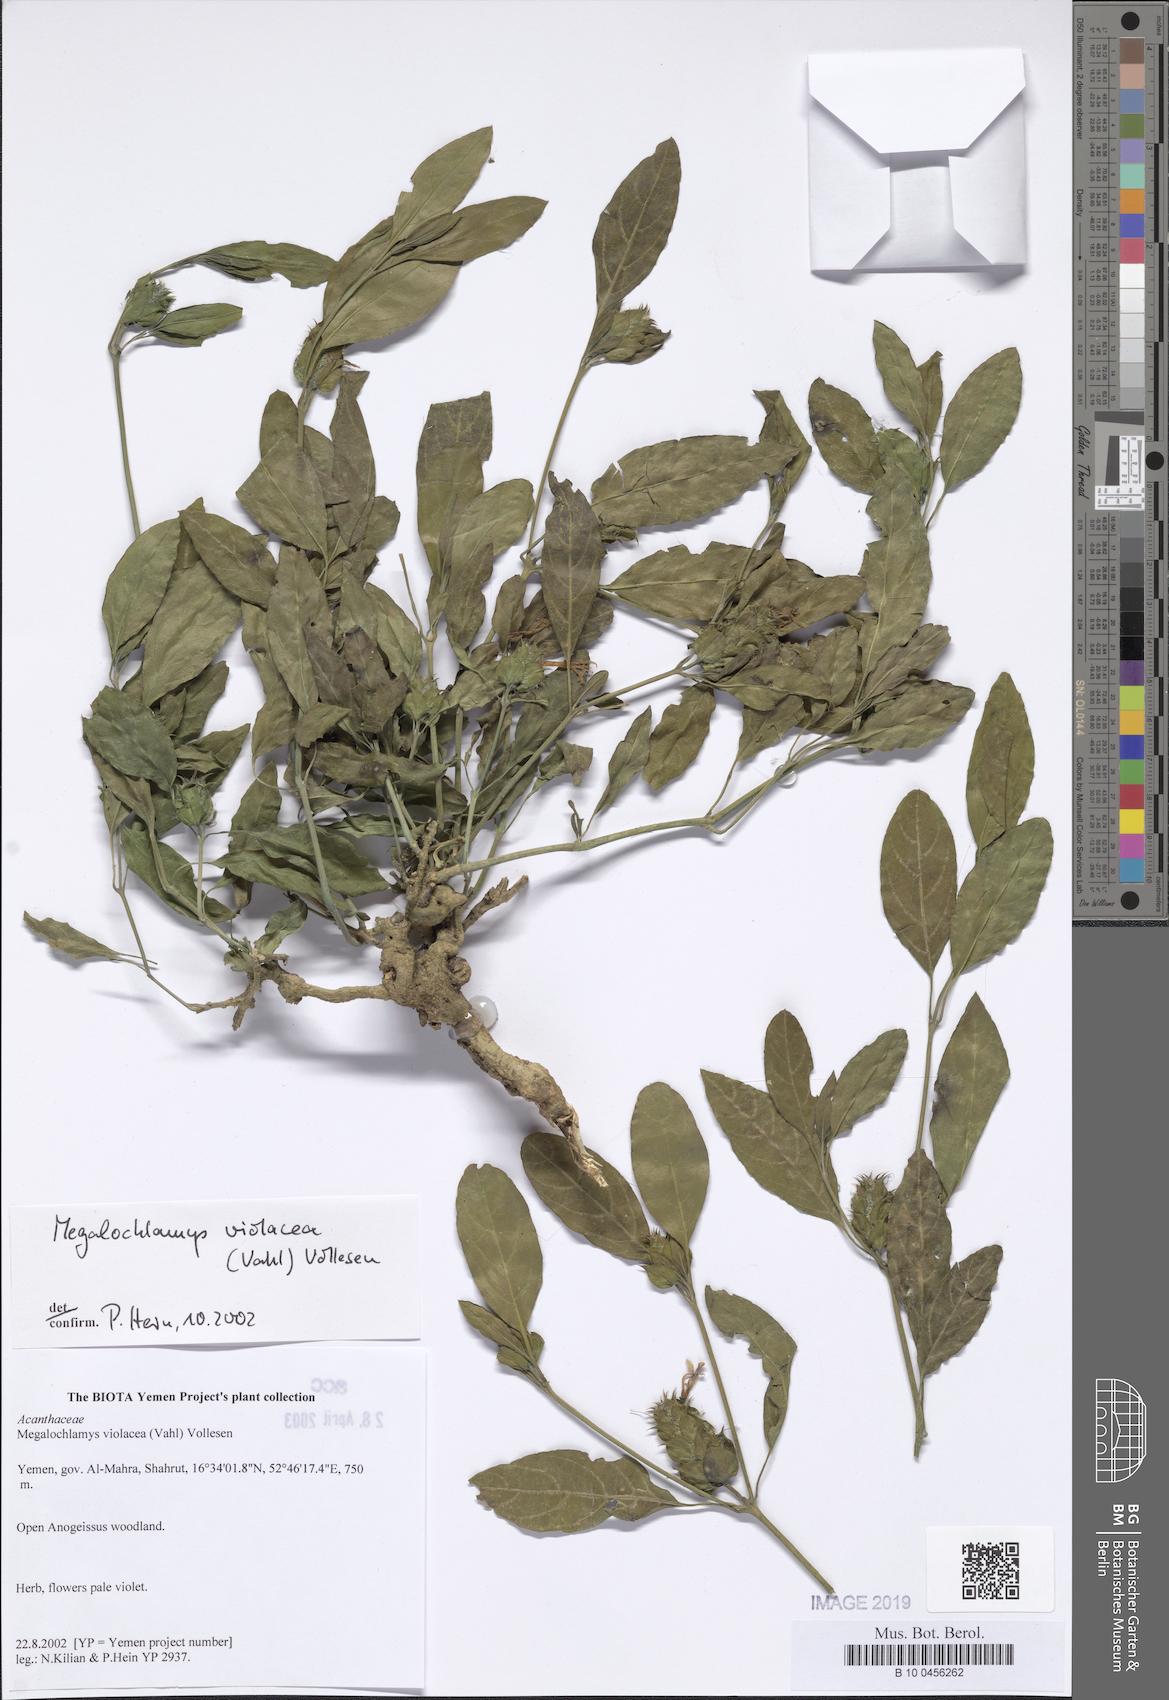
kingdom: Plantae
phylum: Tracheophyta
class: Magnoliopsida
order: Lamiales
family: Acanthaceae
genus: Megalochlamys
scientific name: Megalochlamys violacea
